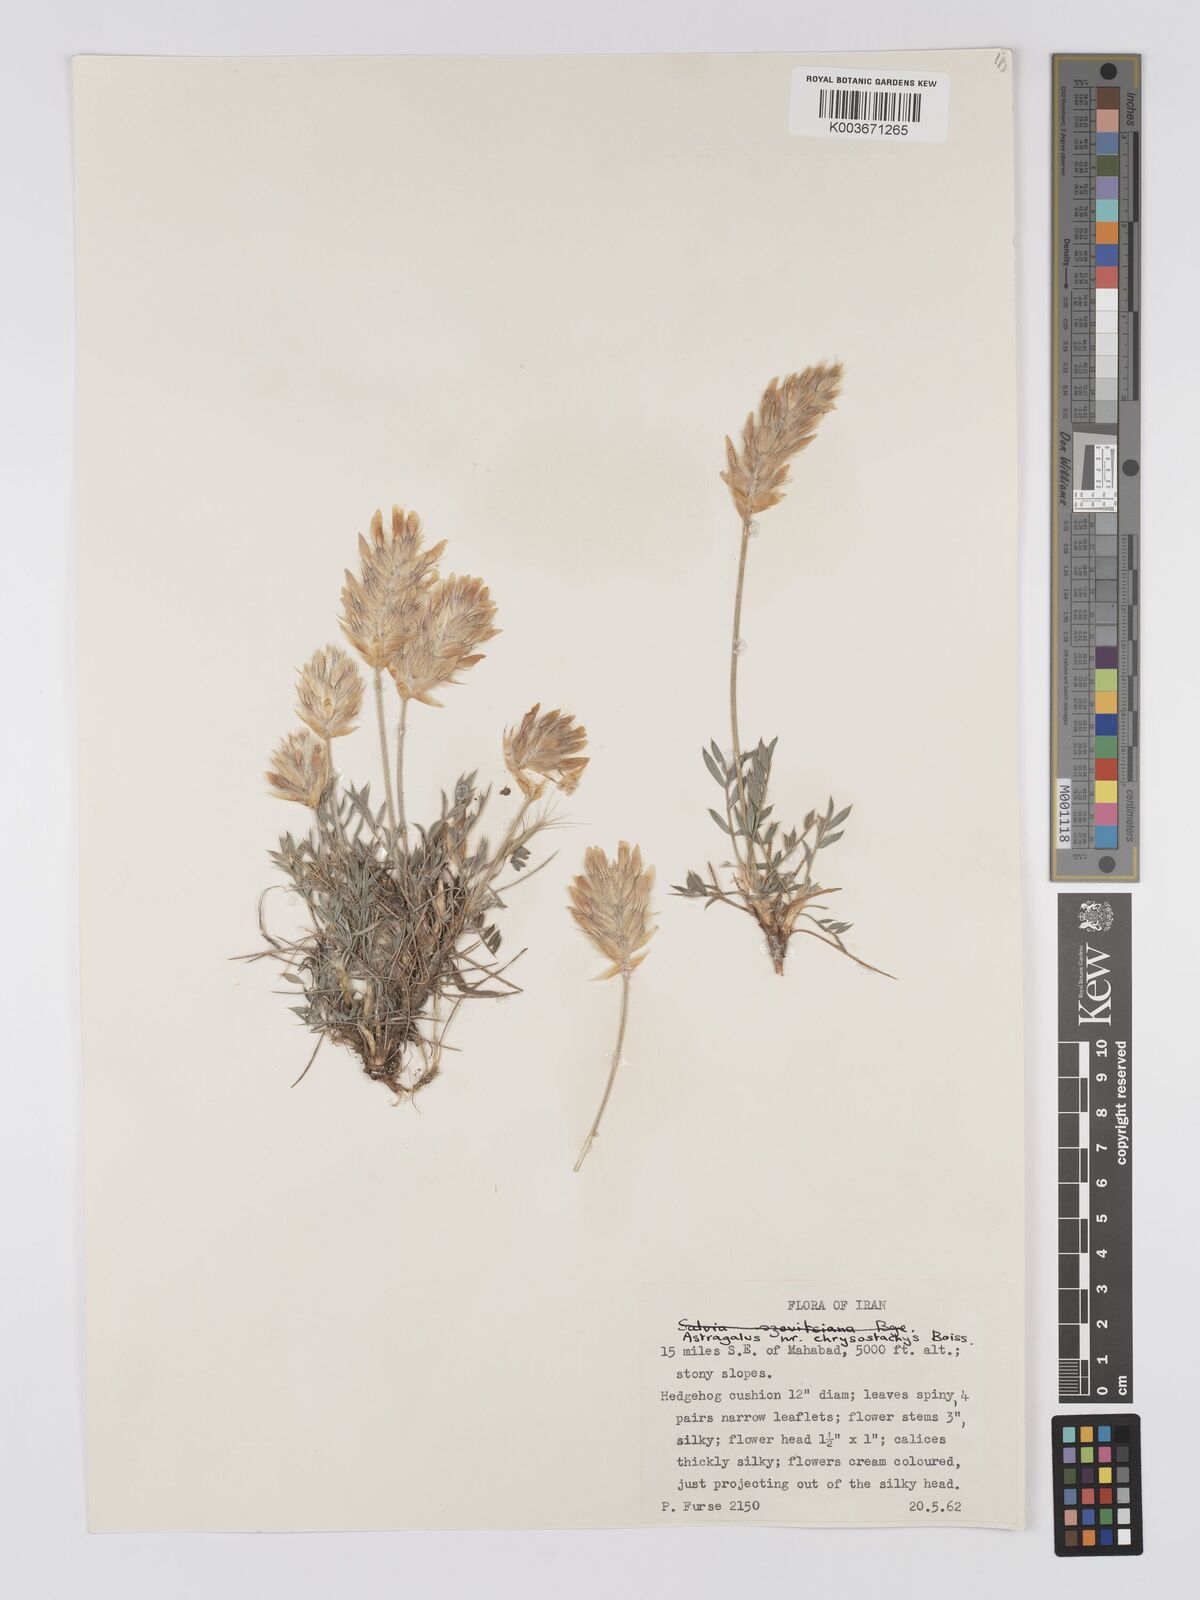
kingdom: Plantae
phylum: Tracheophyta
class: Magnoliopsida
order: Fabales
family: Fabaceae
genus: Astragalus
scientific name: Astragalus chrysostachys
